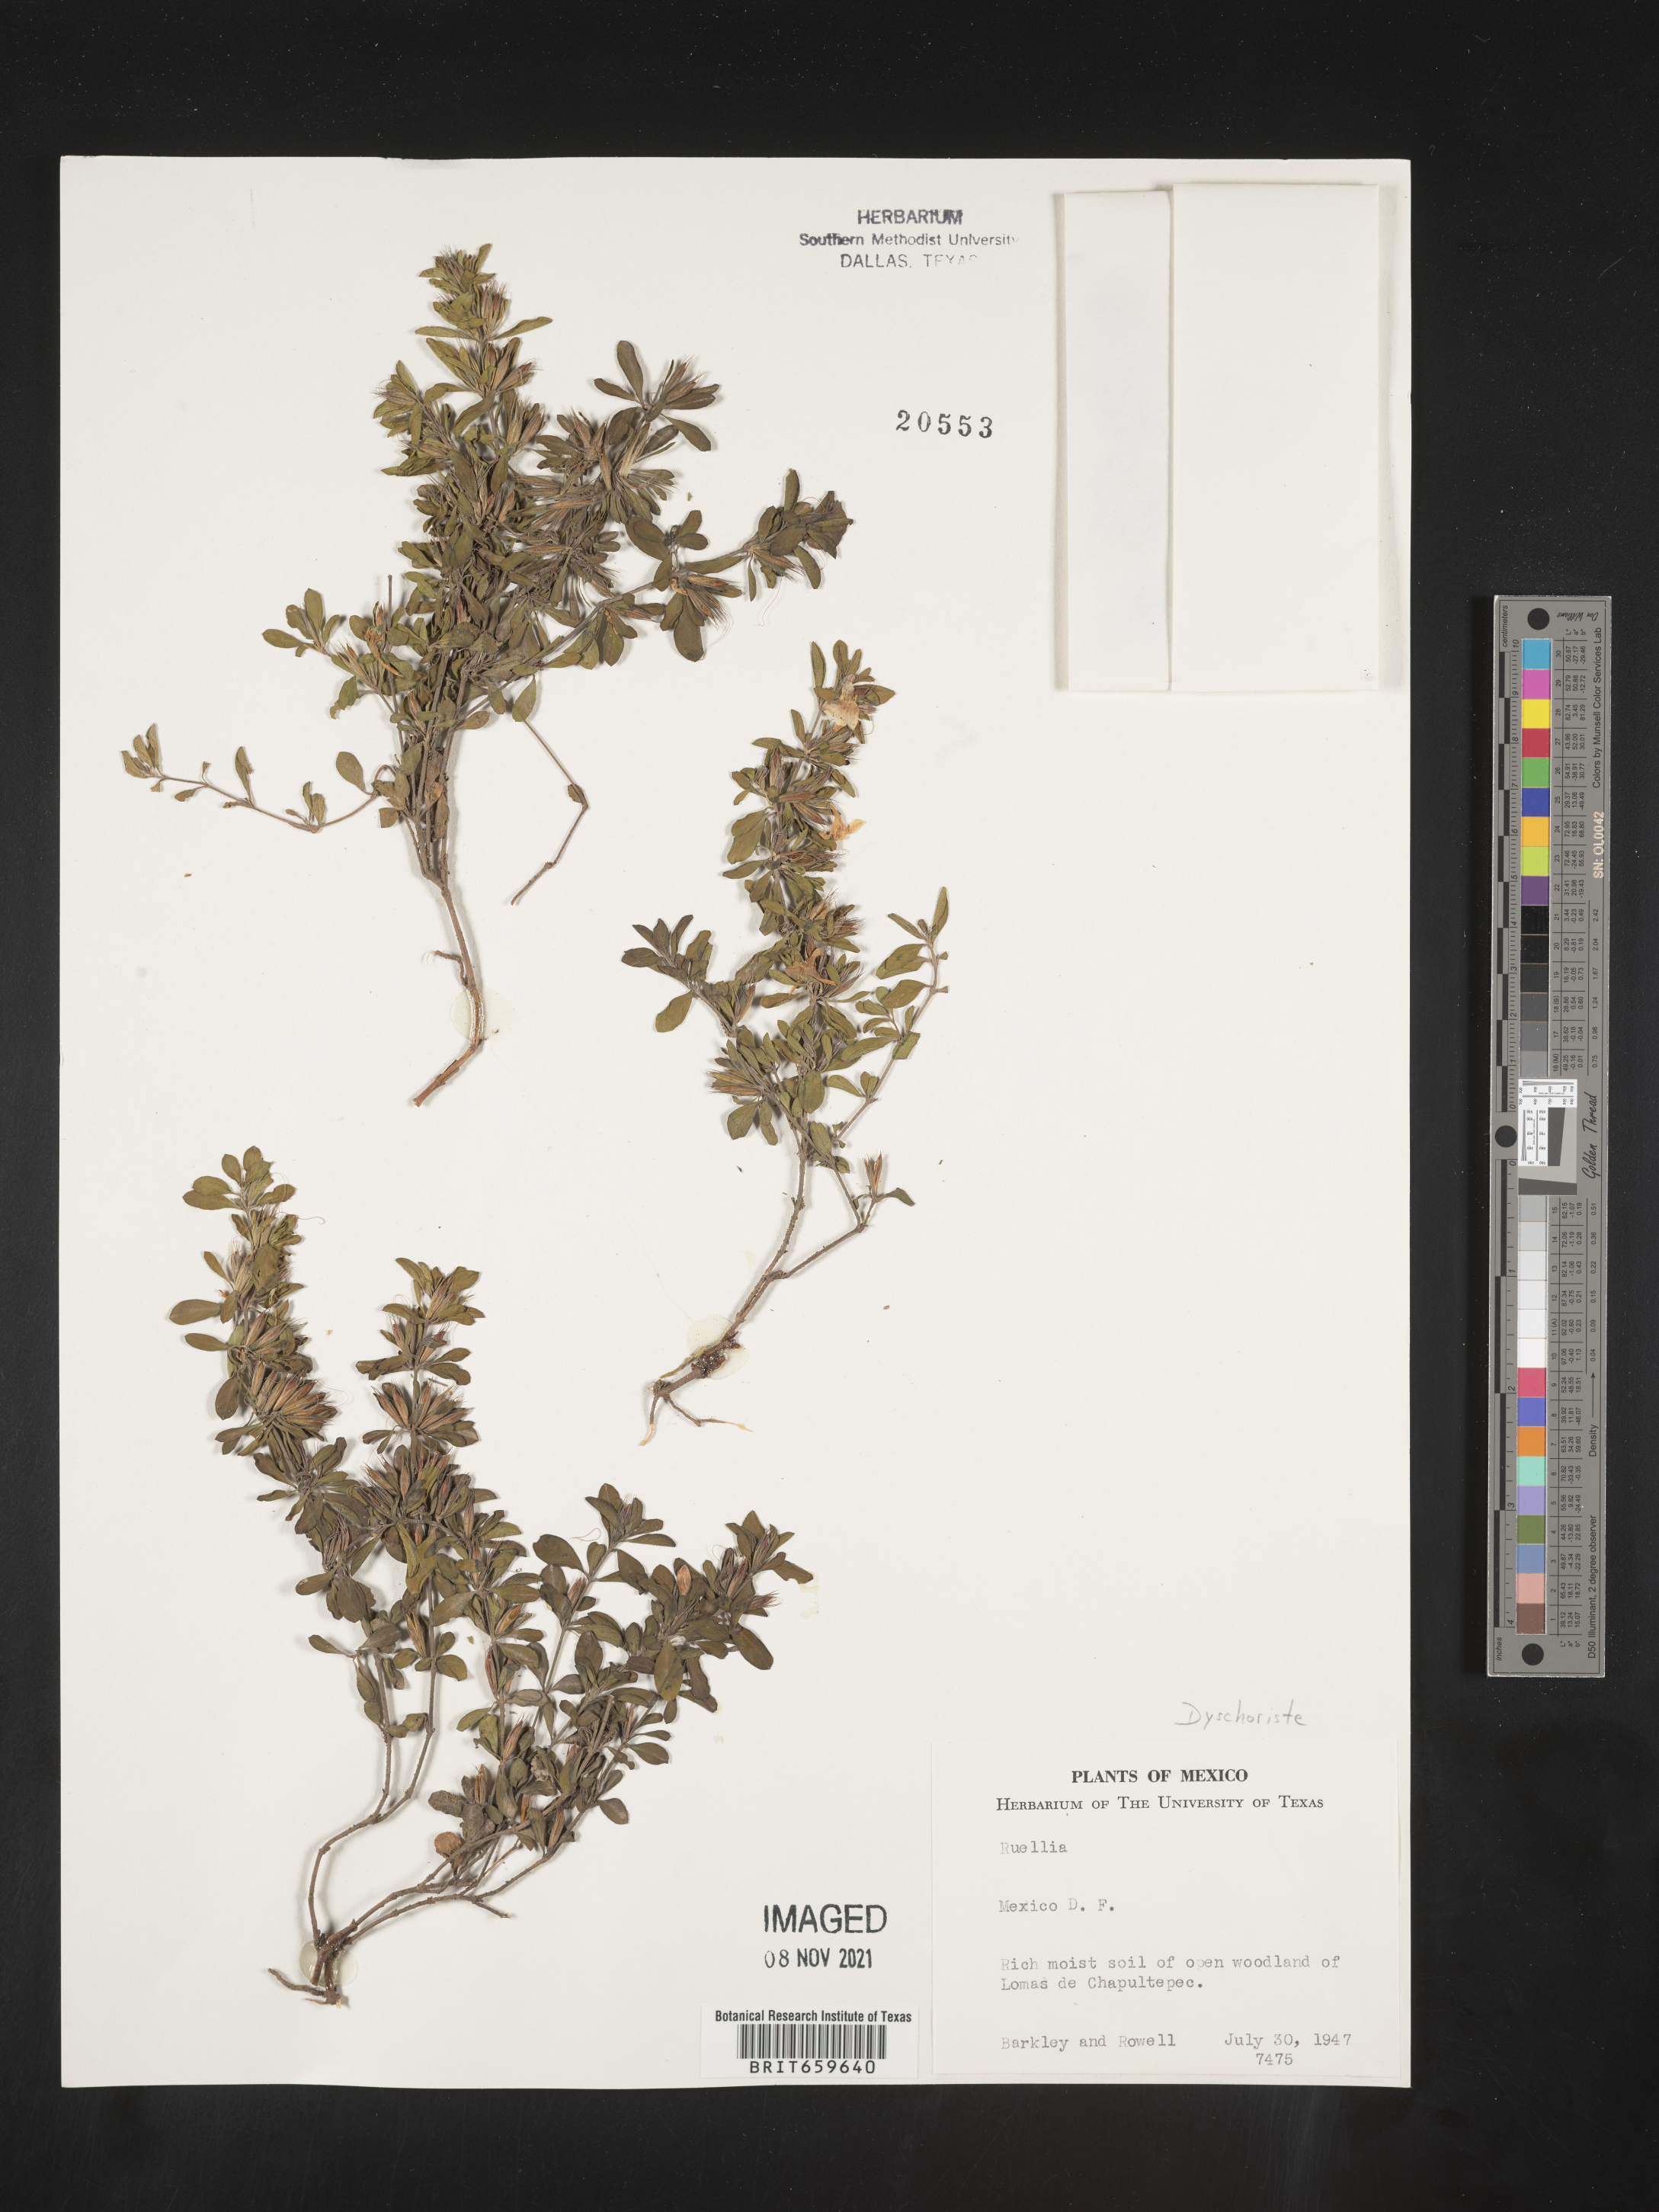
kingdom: Plantae
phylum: Tracheophyta
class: Magnoliopsida
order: Lamiales
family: Acanthaceae
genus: Dyschoriste
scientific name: Dyschoriste
